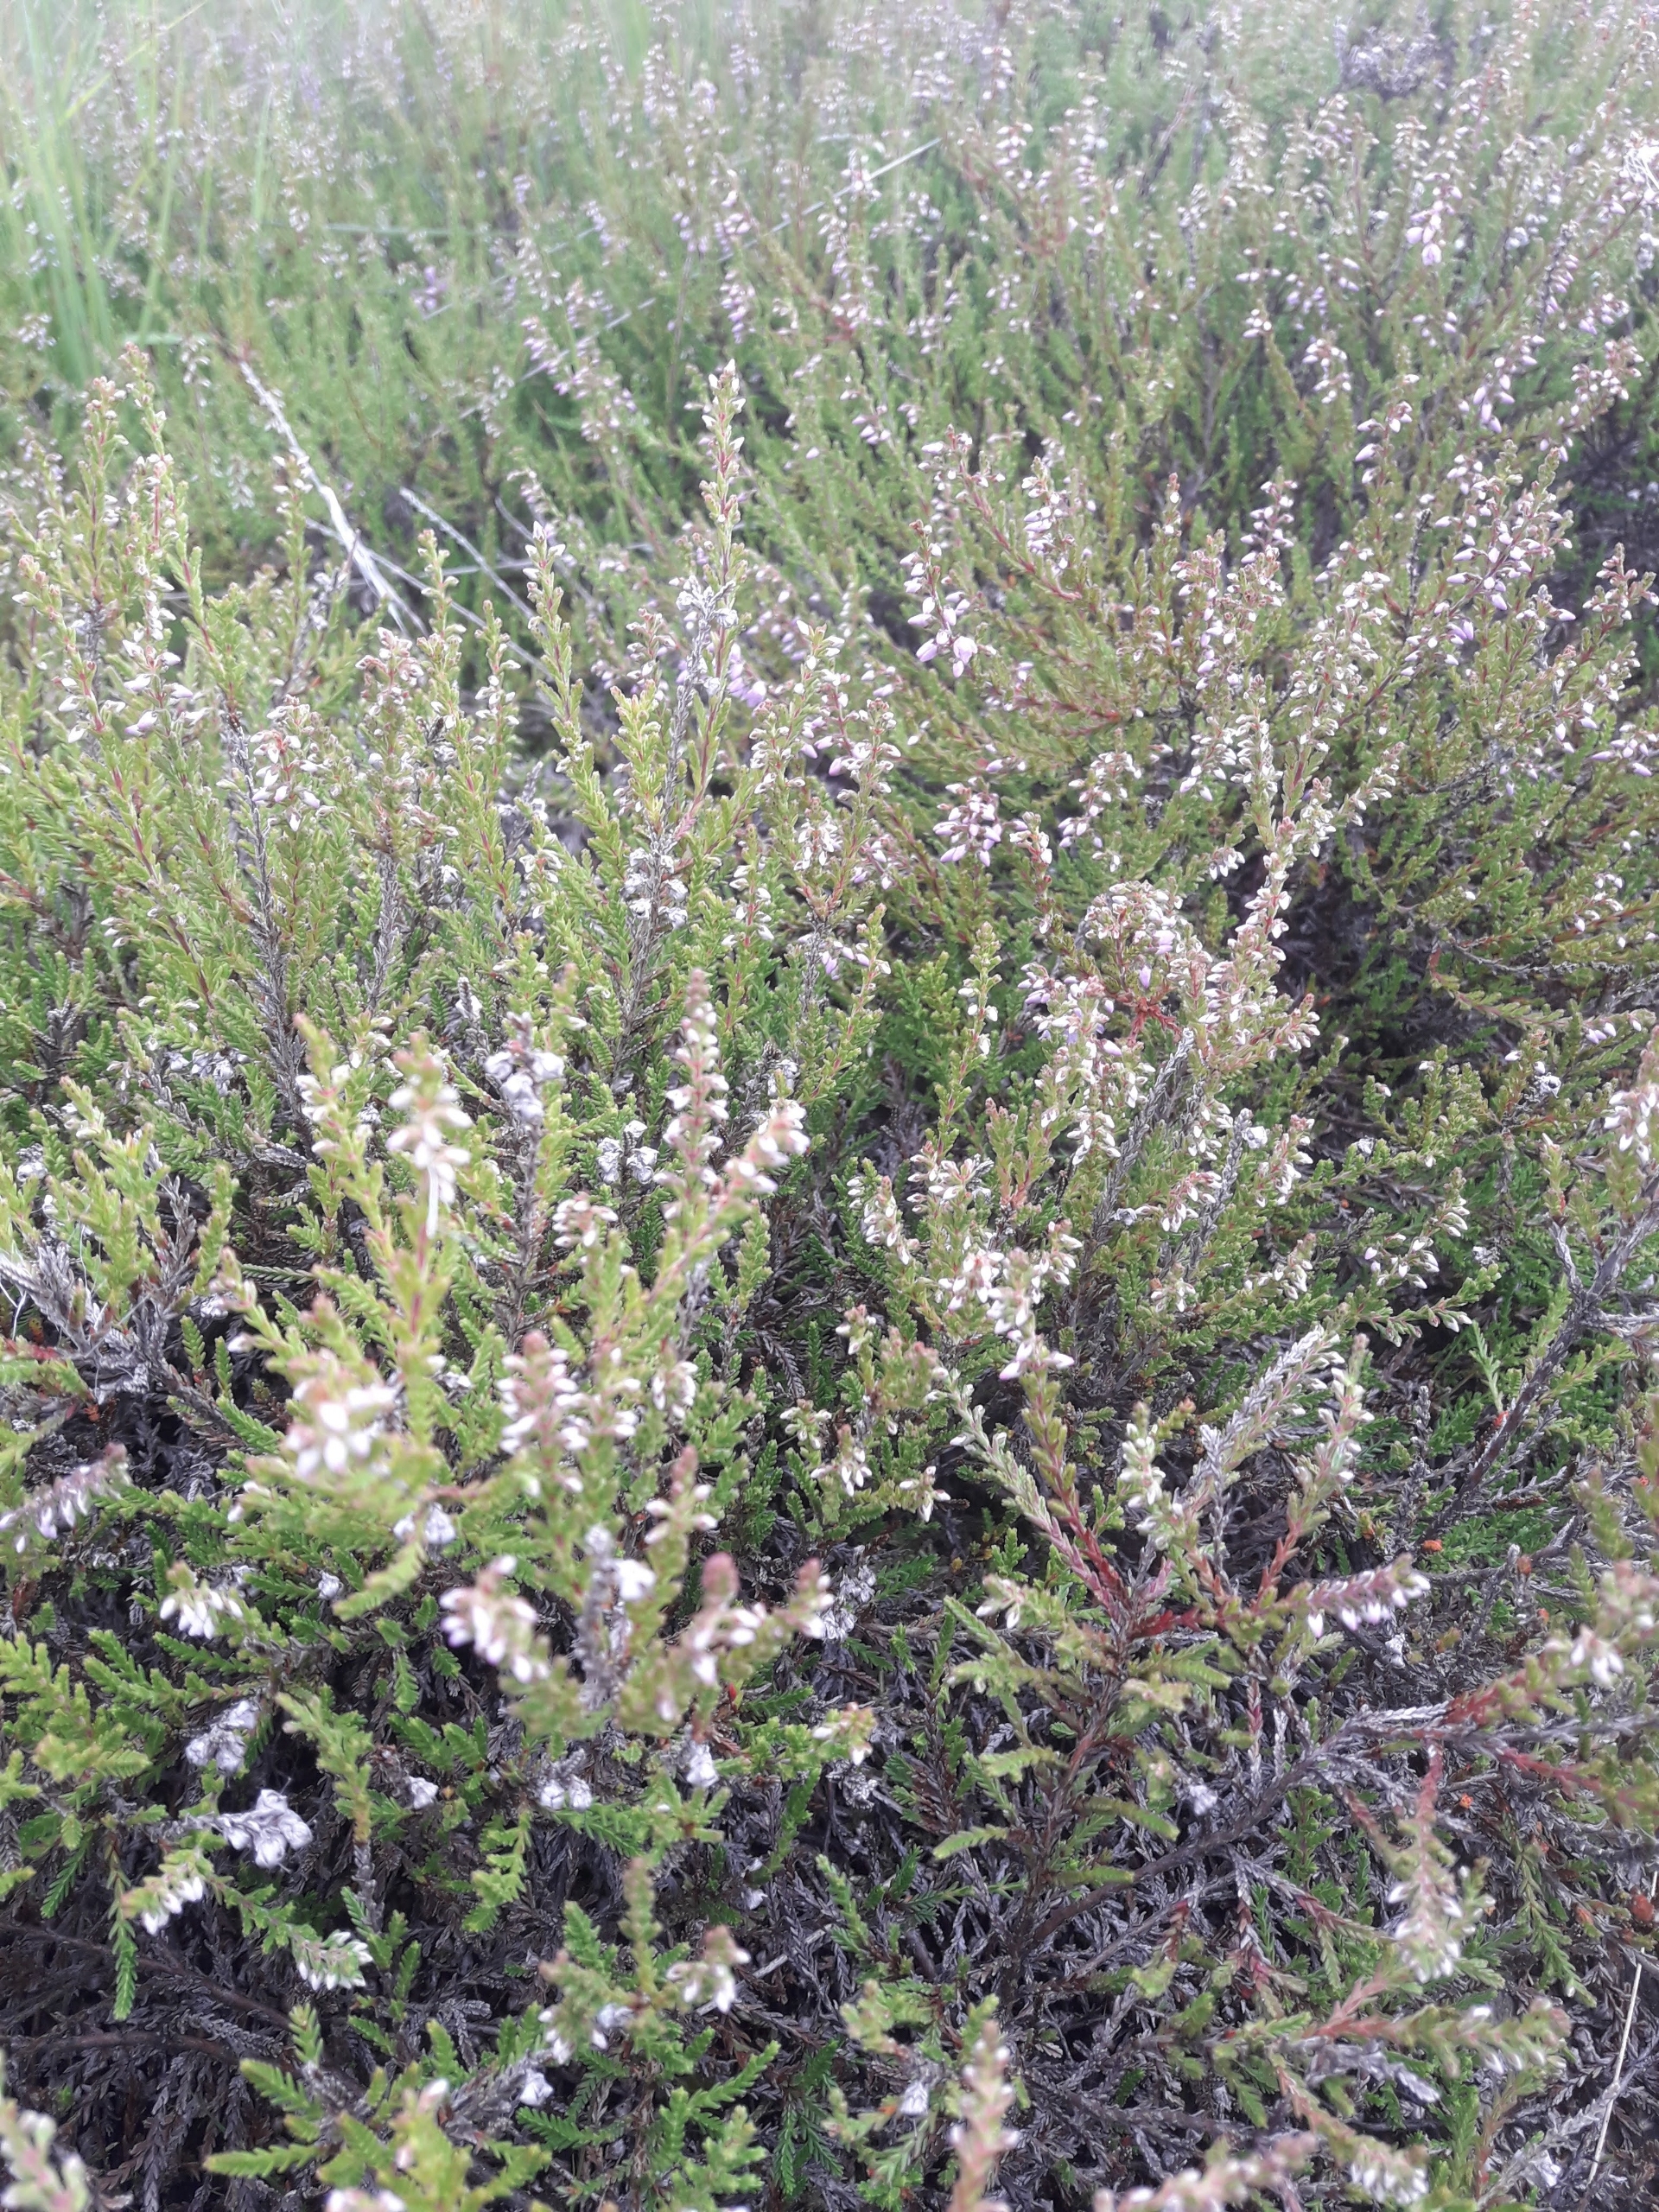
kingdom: Plantae
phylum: Tracheophyta
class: Magnoliopsida
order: Ericales
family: Ericaceae
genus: Calluna
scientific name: Calluna vulgaris
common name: Hedelyng
